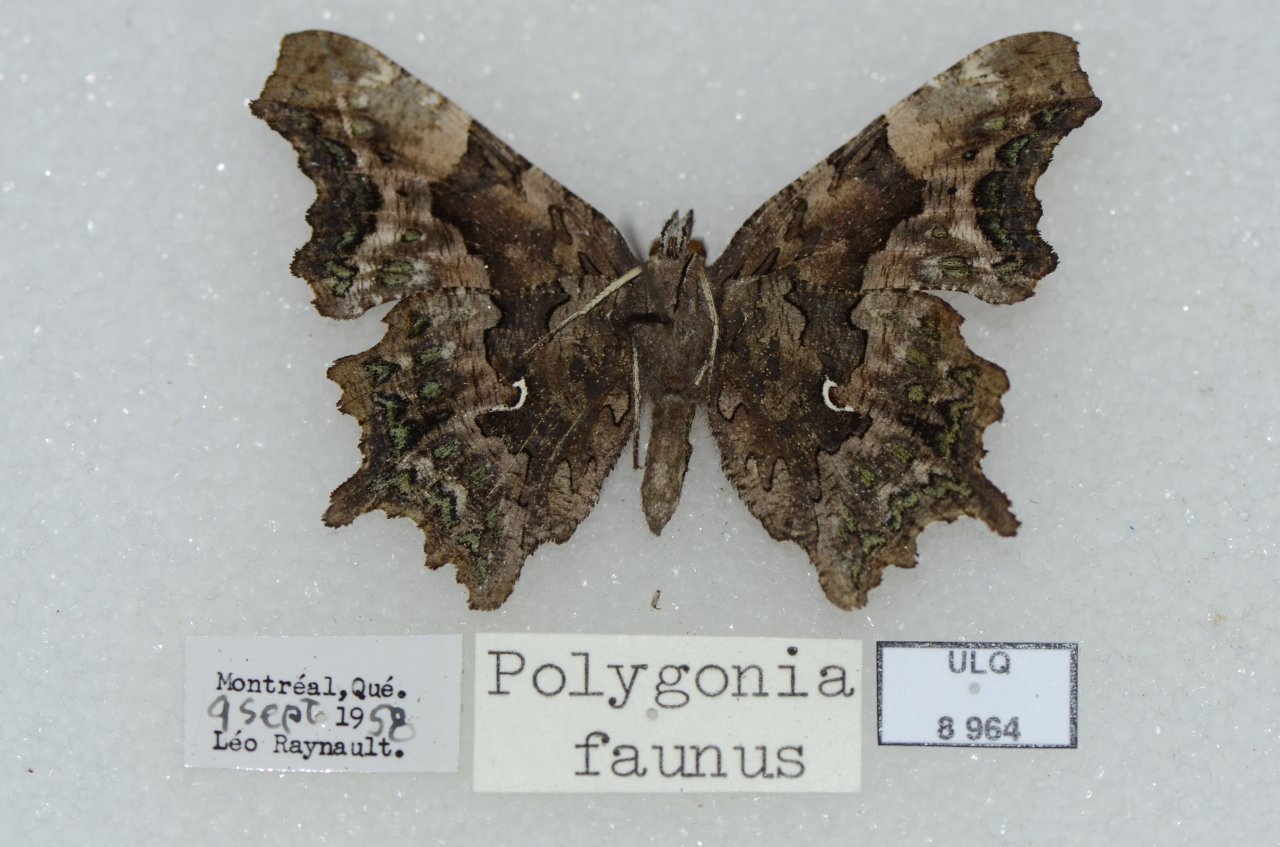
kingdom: Animalia
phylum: Arthropoda
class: Insecta
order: Lepidoptera
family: Nymphalidae
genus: Polygonia
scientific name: Polygonia faunus
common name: Green Comma
